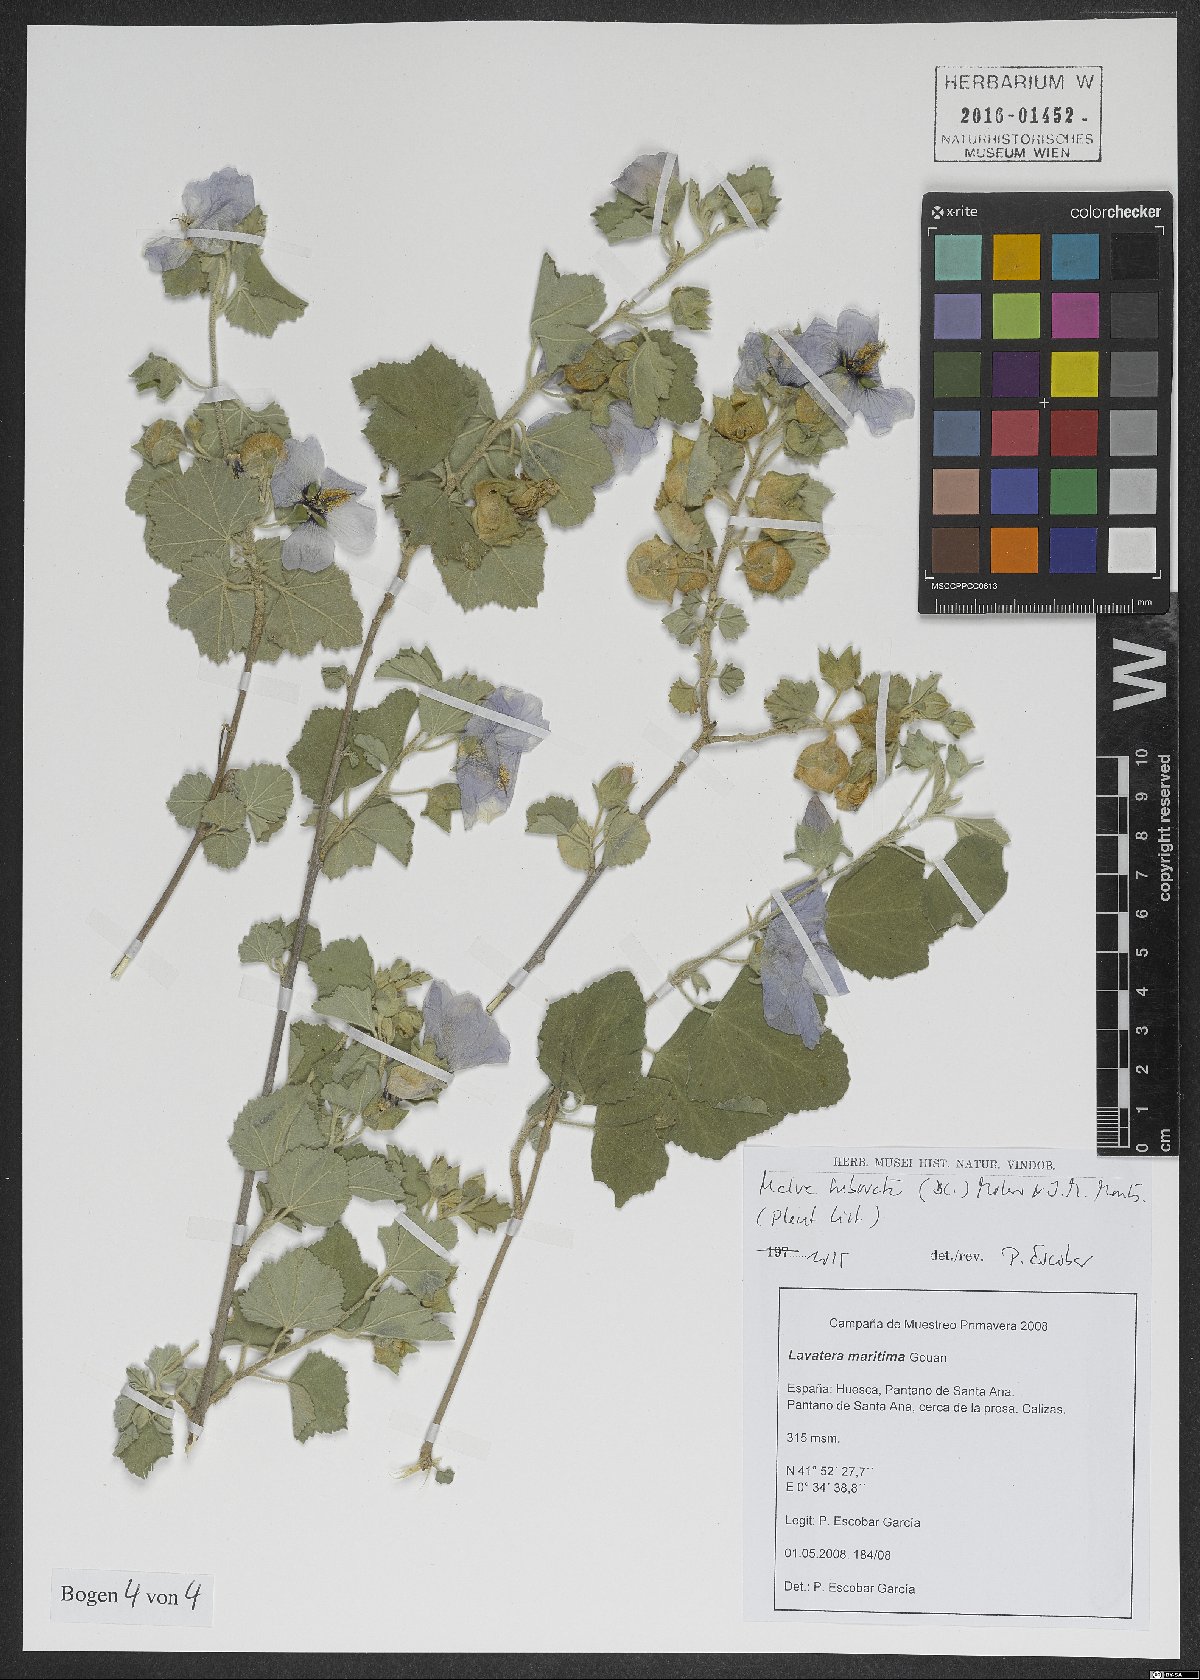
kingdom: Plantae
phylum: Tracheophyta
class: Magnoliopsida
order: Malvales
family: Malvaceae
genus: Malva
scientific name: Malva subovata
